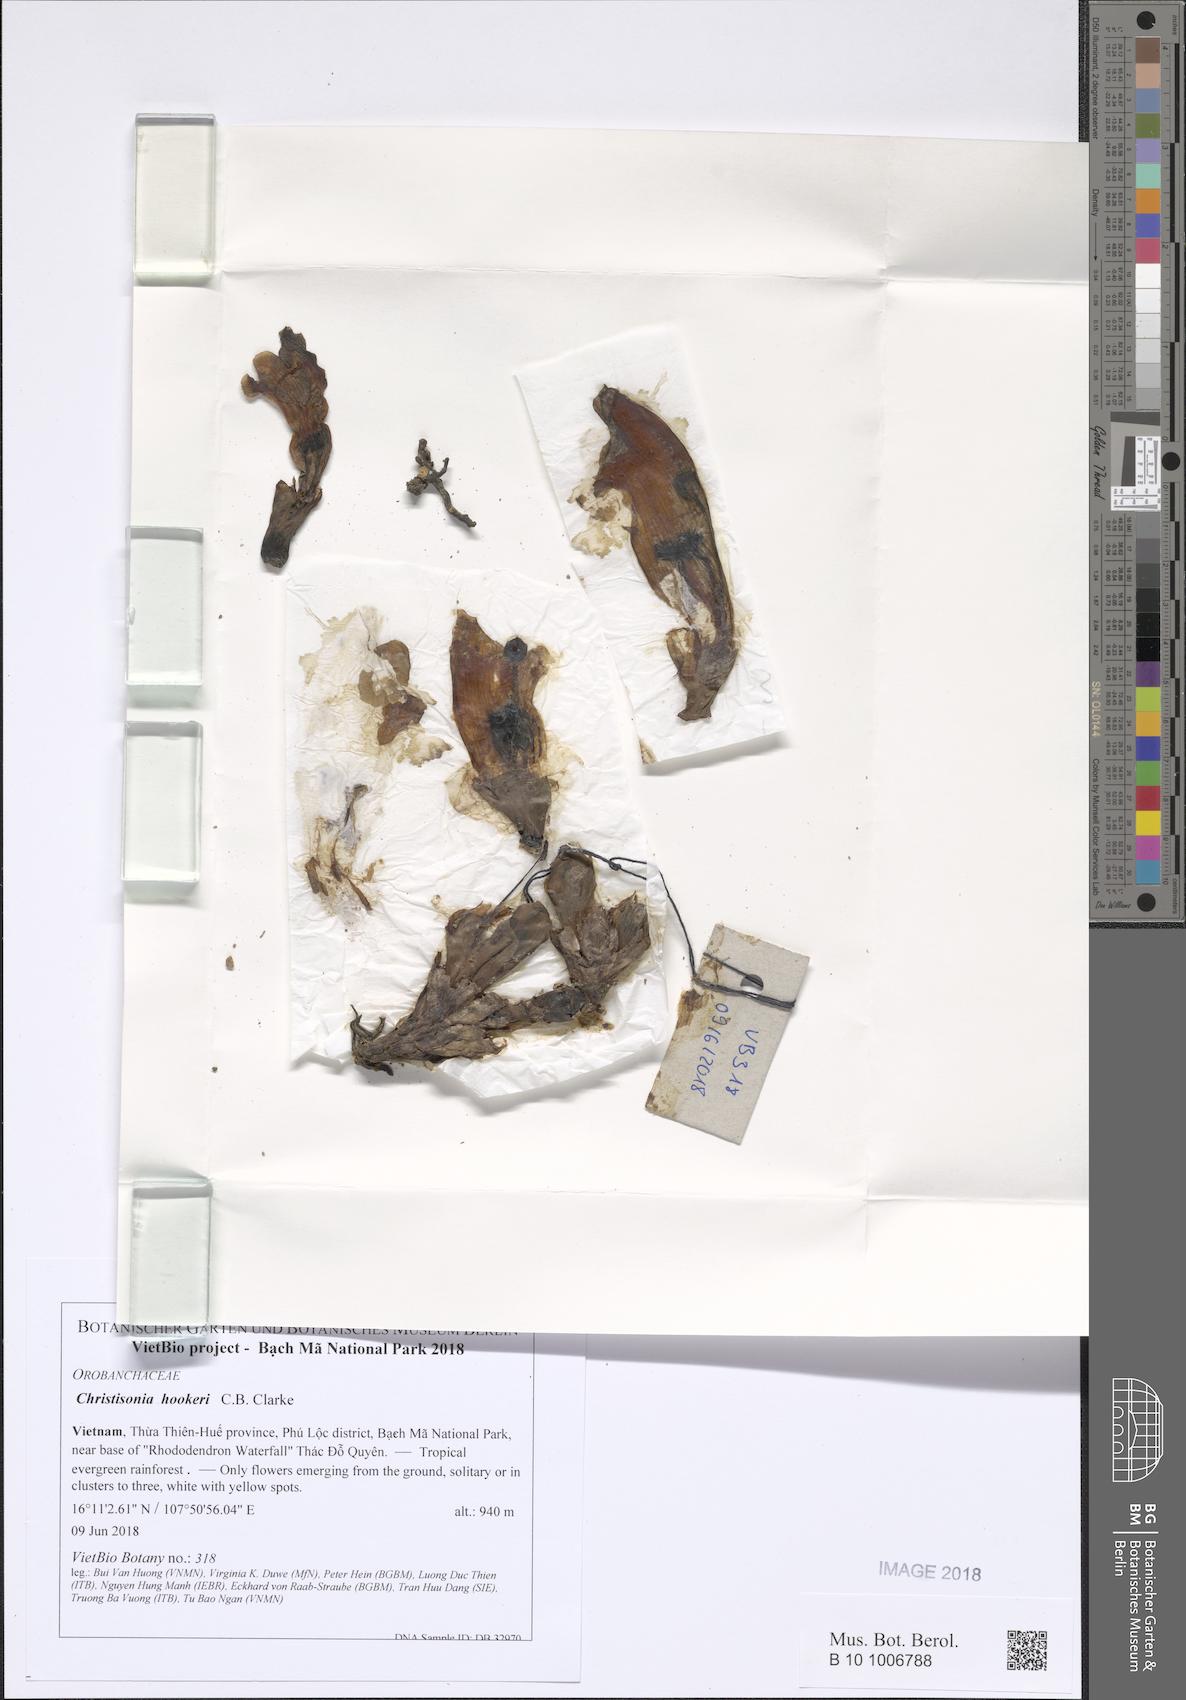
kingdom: Plantae
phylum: Tracheophyta
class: Magnoliopsida
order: Lamiales
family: Orobanchaceae
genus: Christisonia
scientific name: Christisonia hookeri
